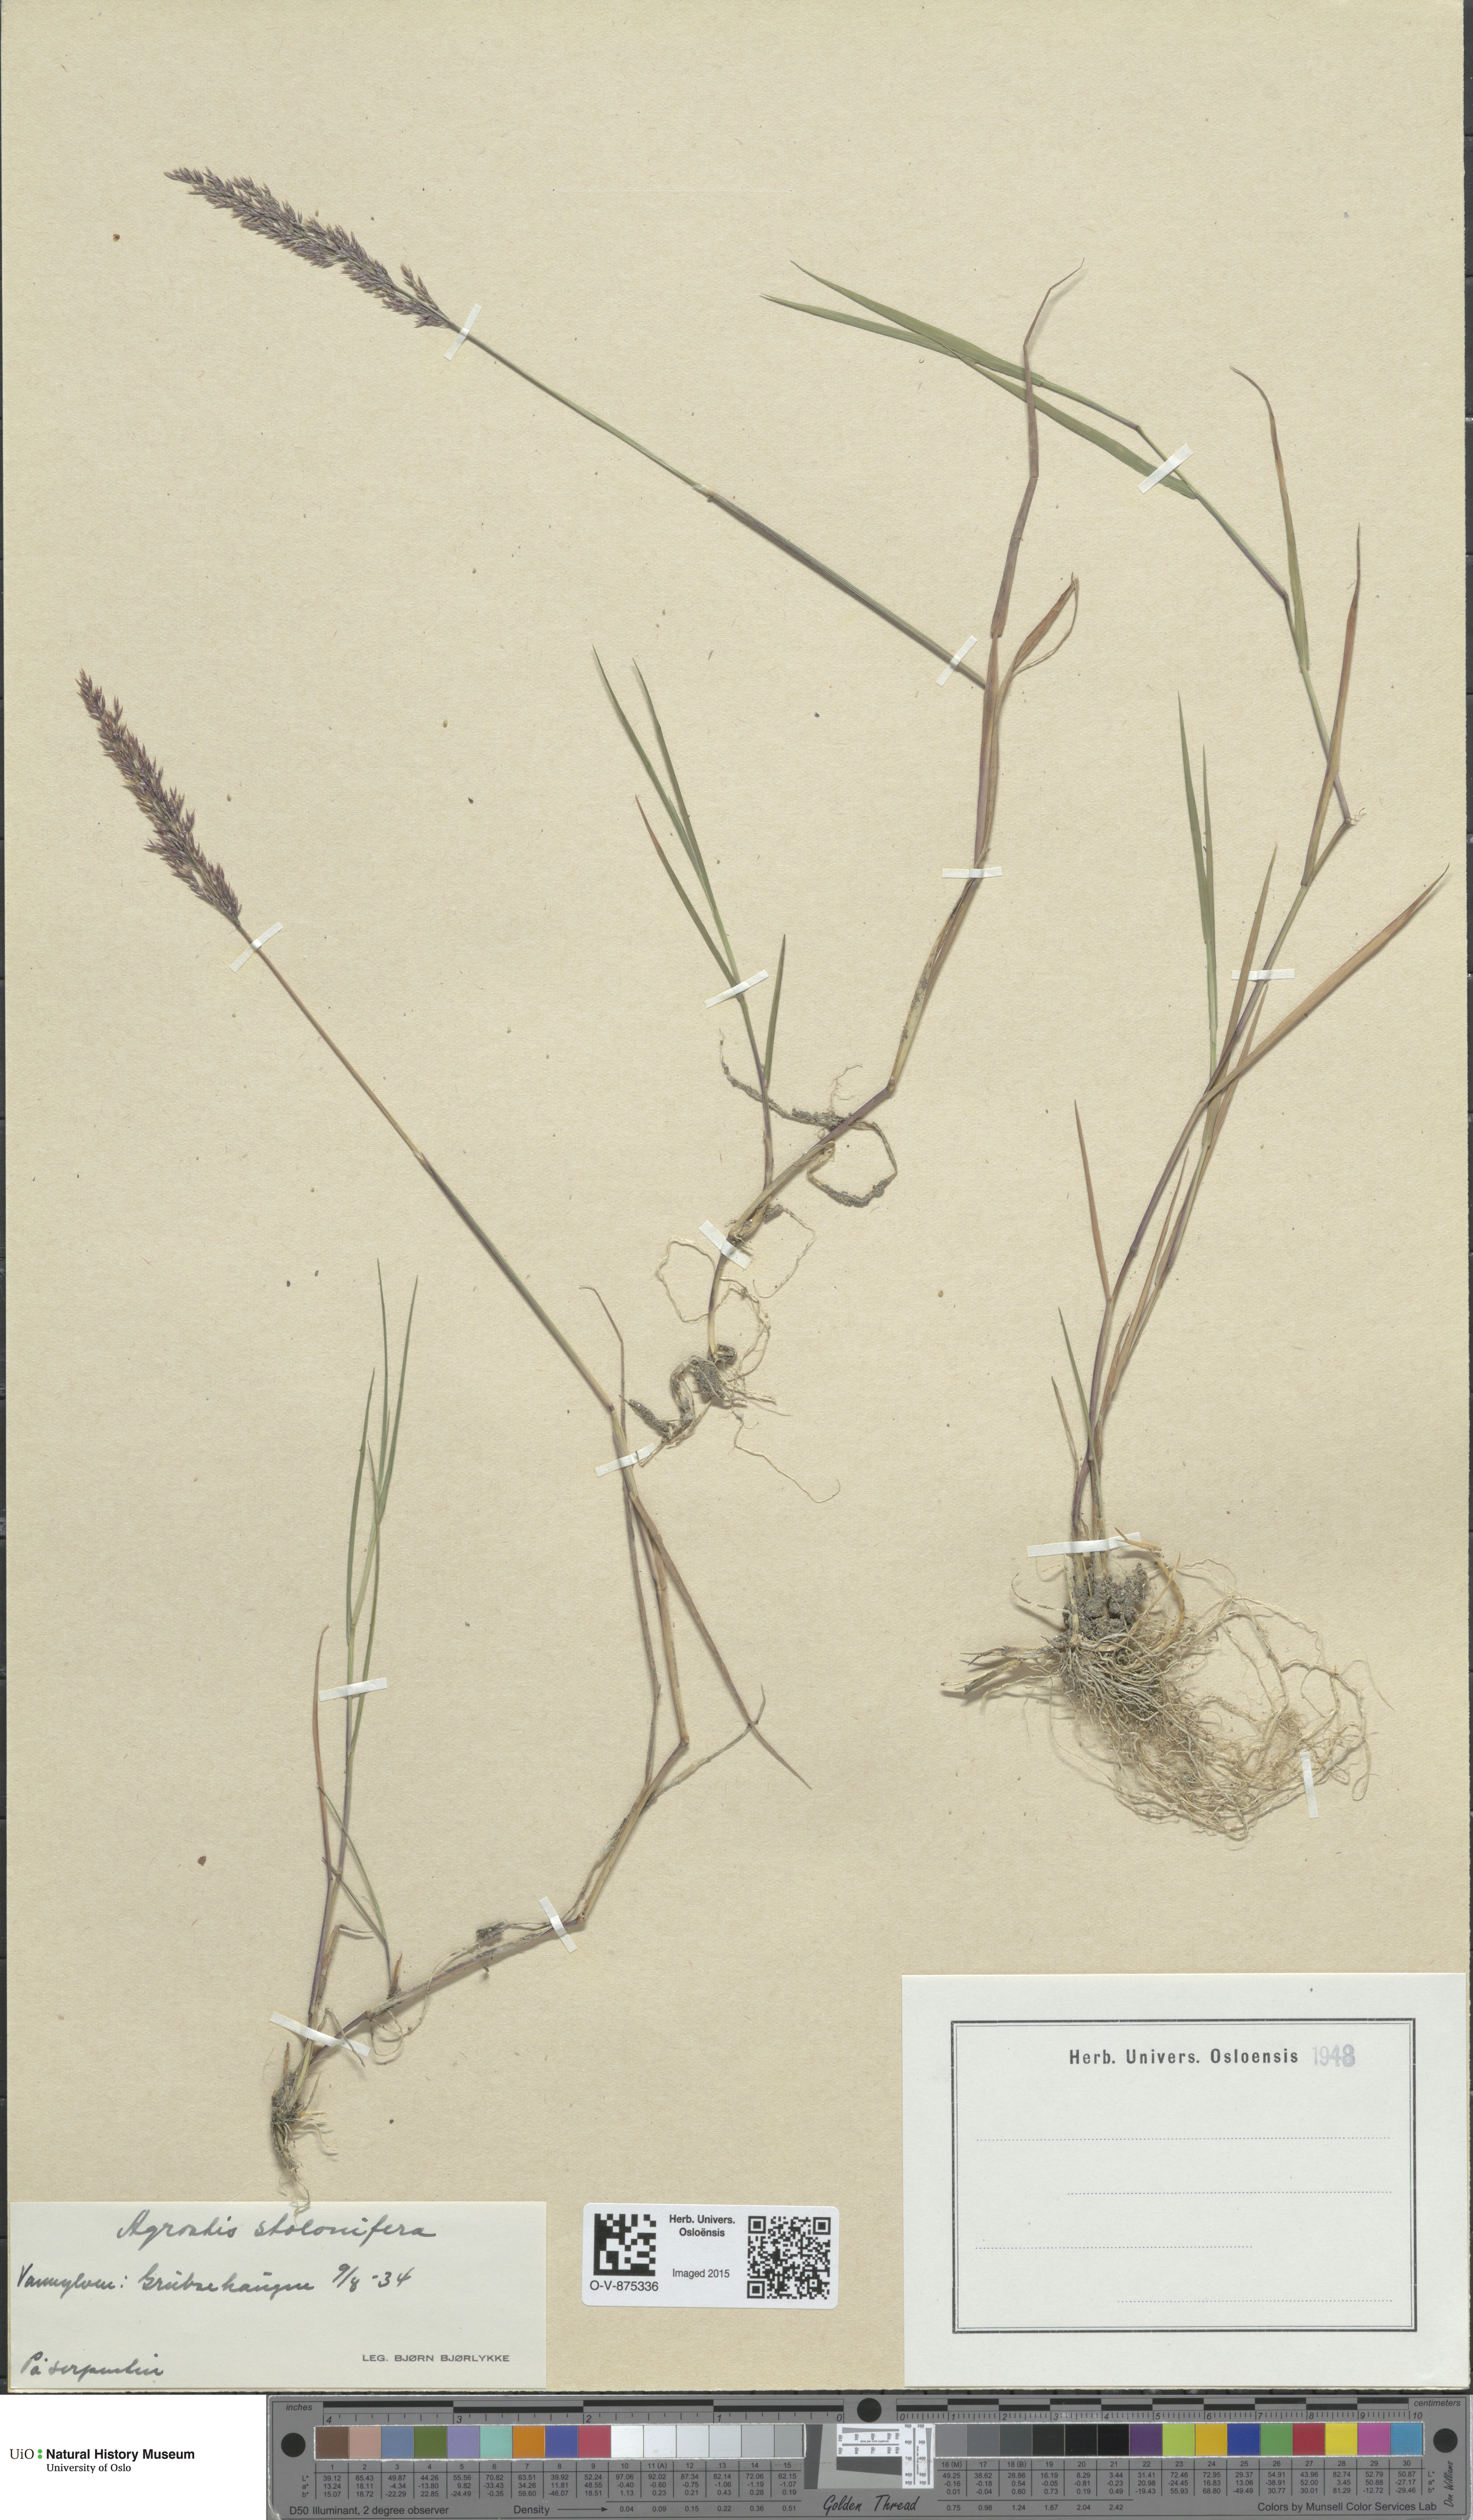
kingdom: Plantae
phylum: Tracheophyta
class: Liliopsida
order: Poales
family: Poaceae
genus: Agrostis
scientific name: Agrostis stolonifera
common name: Creeping bentgrass
